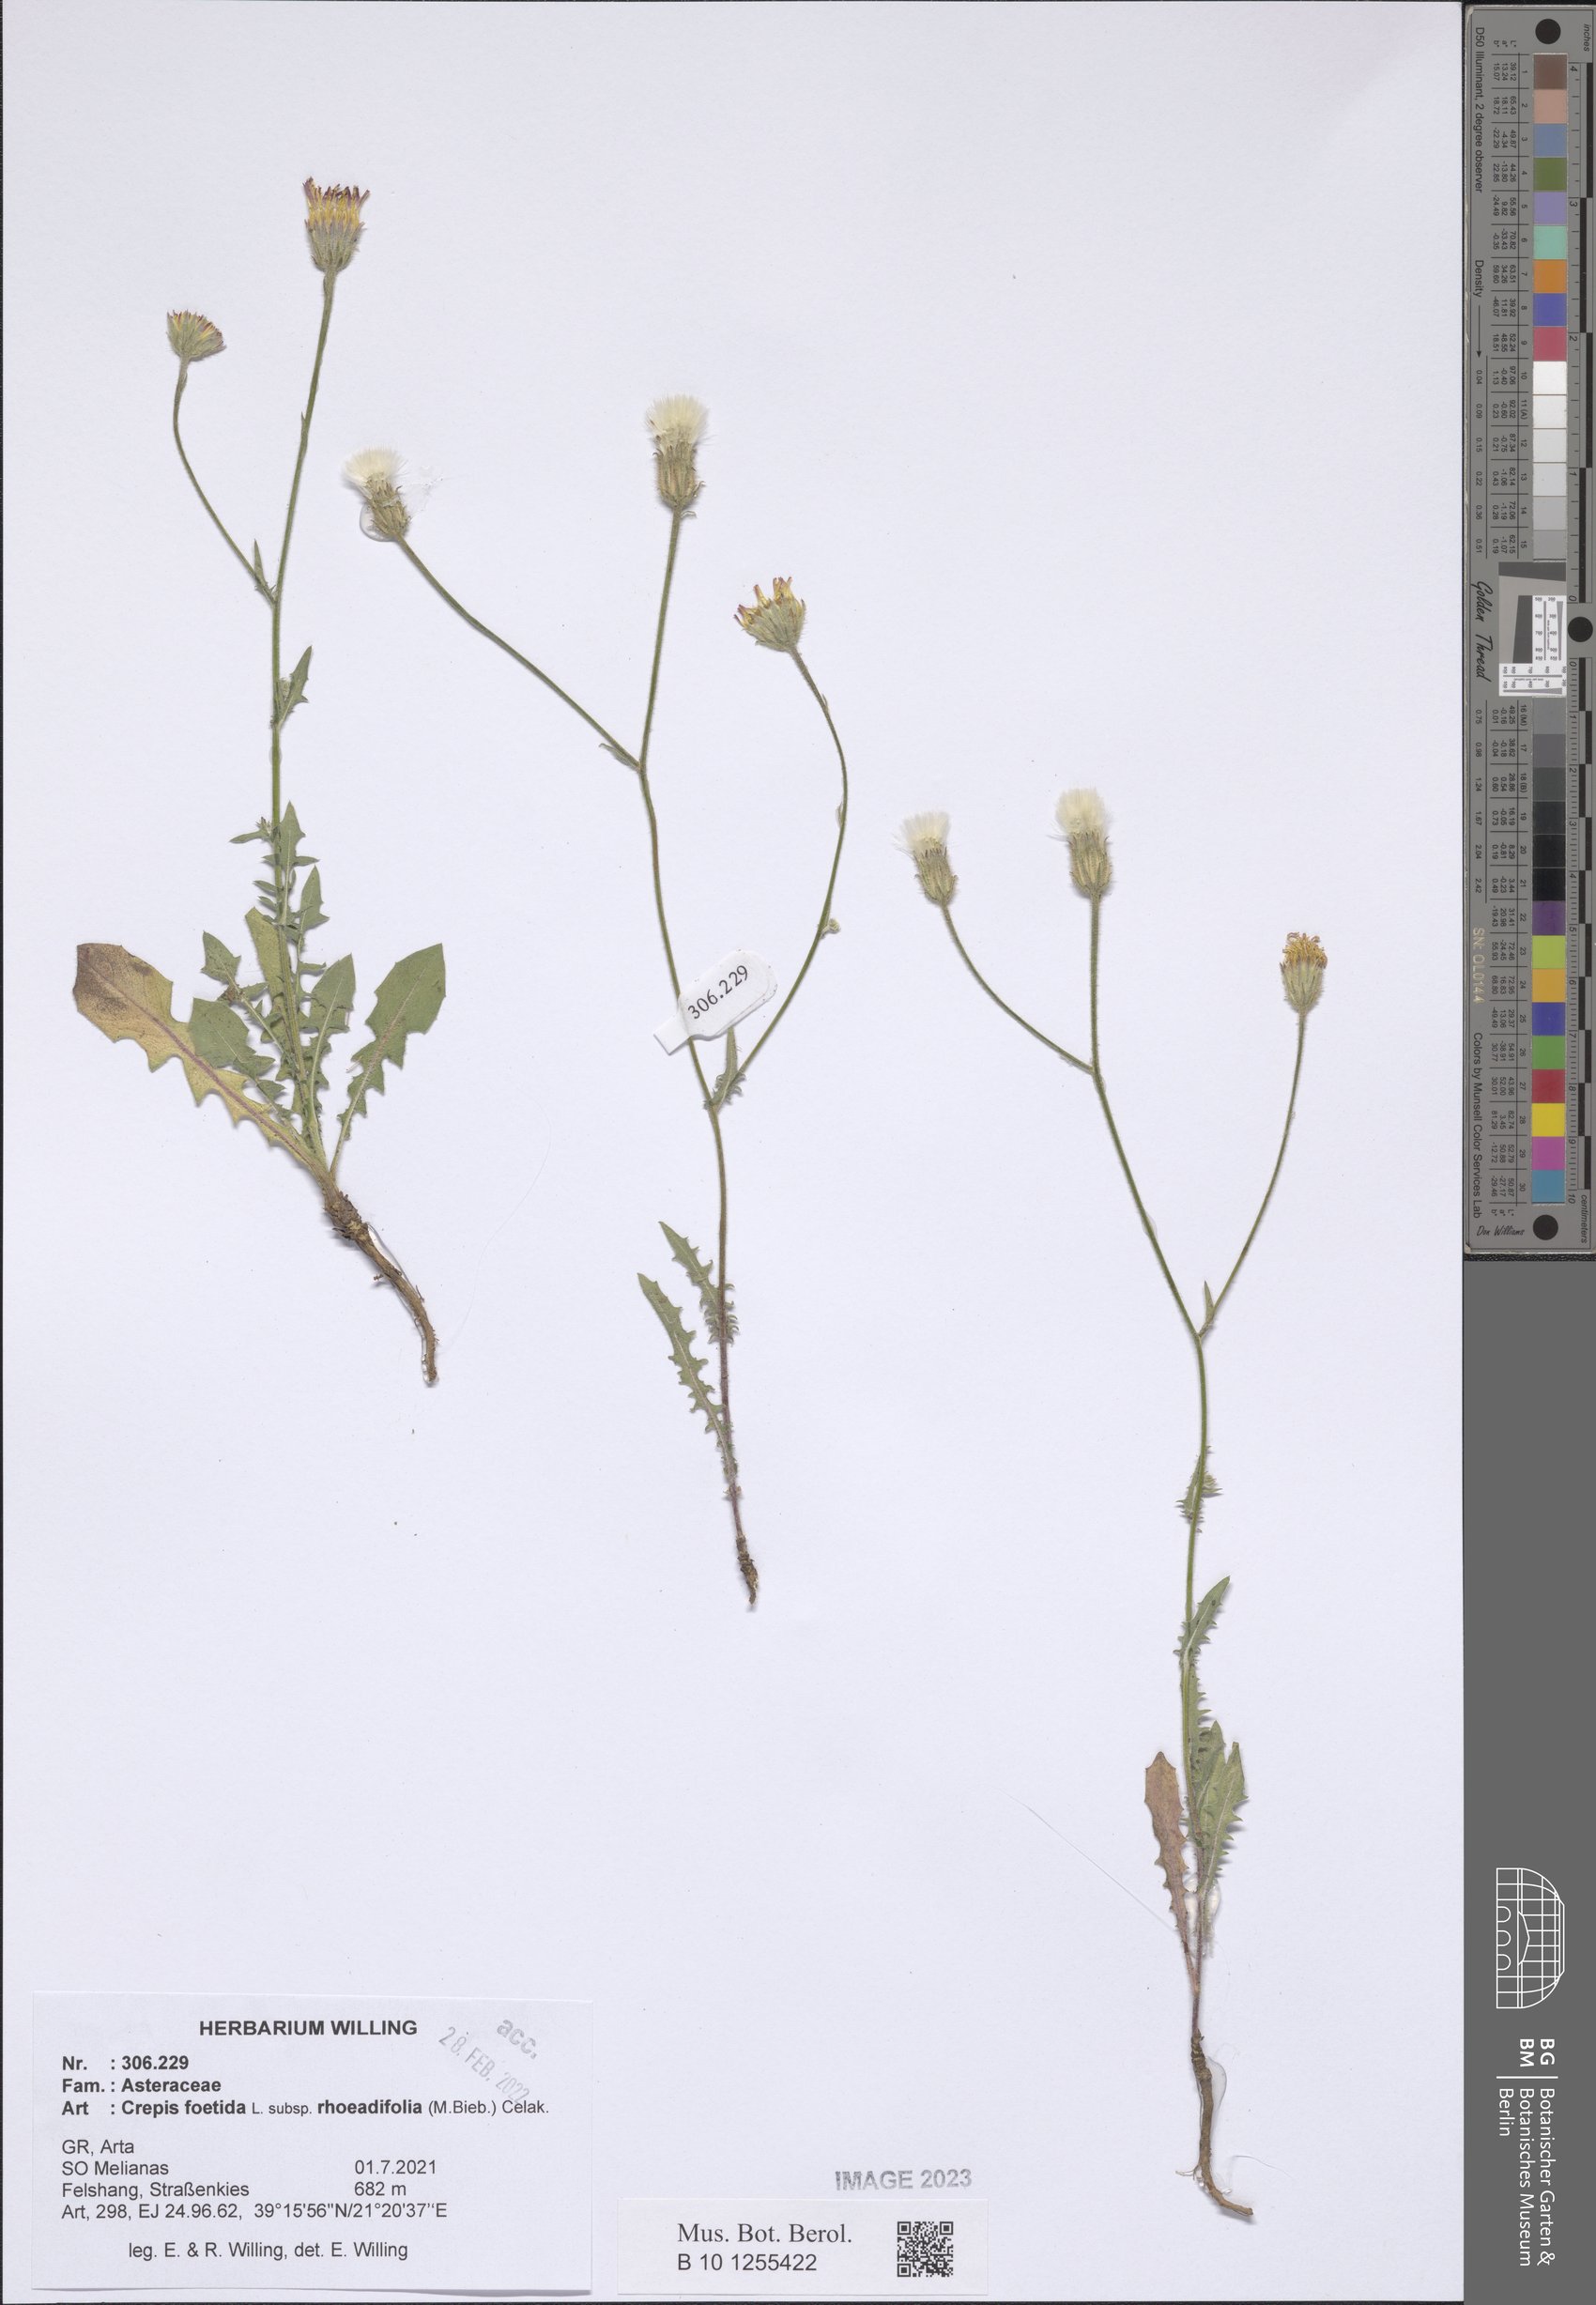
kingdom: Plantae
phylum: Tracheophyta
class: Magnoliopsida
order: Asterales
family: Asteraceae
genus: Crepis
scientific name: Crepis foetida
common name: Stinking hawk's-beard
